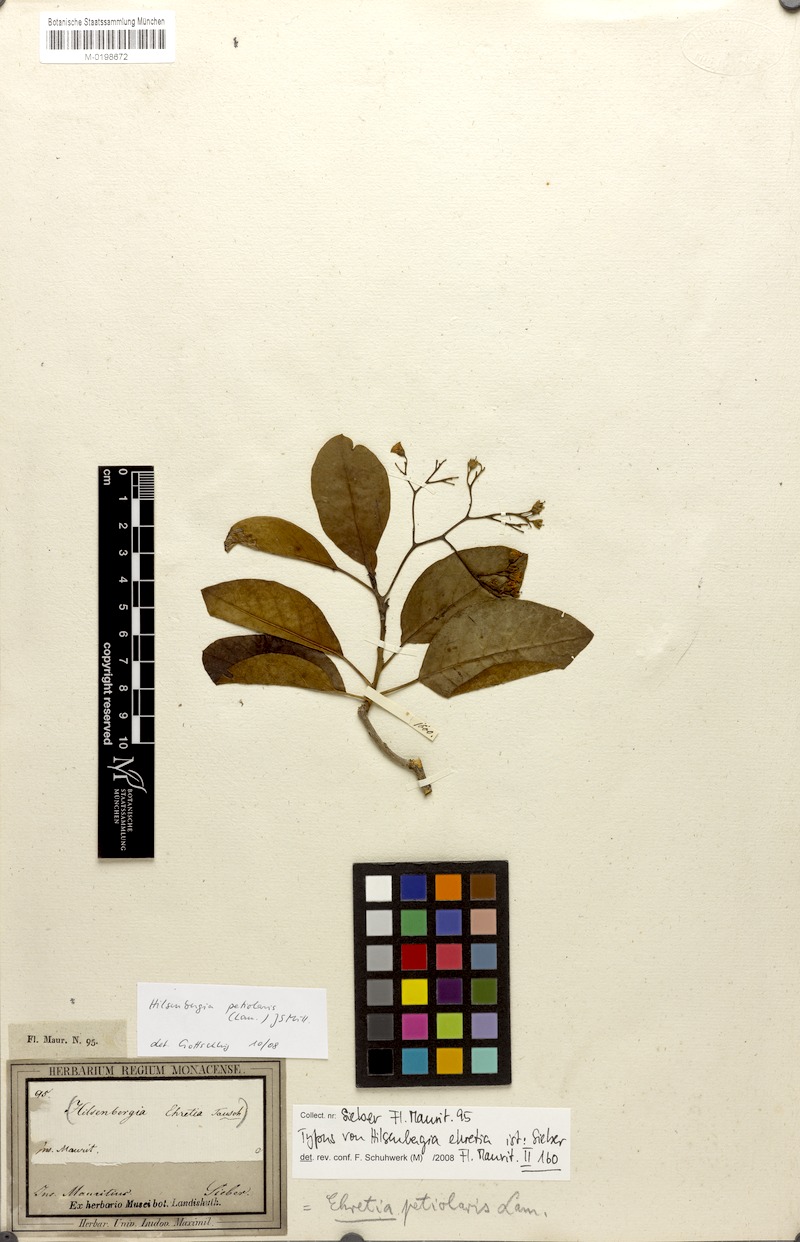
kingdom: Plantae
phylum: Tracheophyta
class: Magnoliopsida
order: Boraginales
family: Ehretiaceae
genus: Bourreria
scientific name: Bourreria petiolaris
